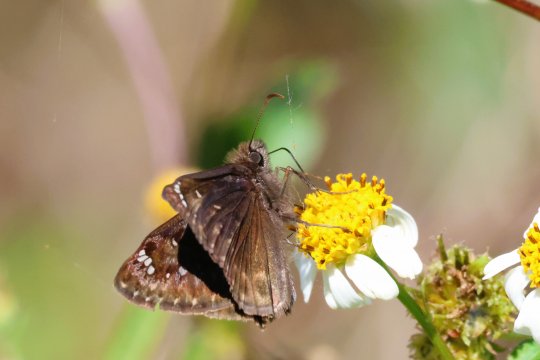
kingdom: Animalia
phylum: Arthropoda
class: Insecta
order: Lepidoptera
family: Hesperiidae
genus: Gesta
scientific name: Gesta
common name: Juvenal's Duskywing
